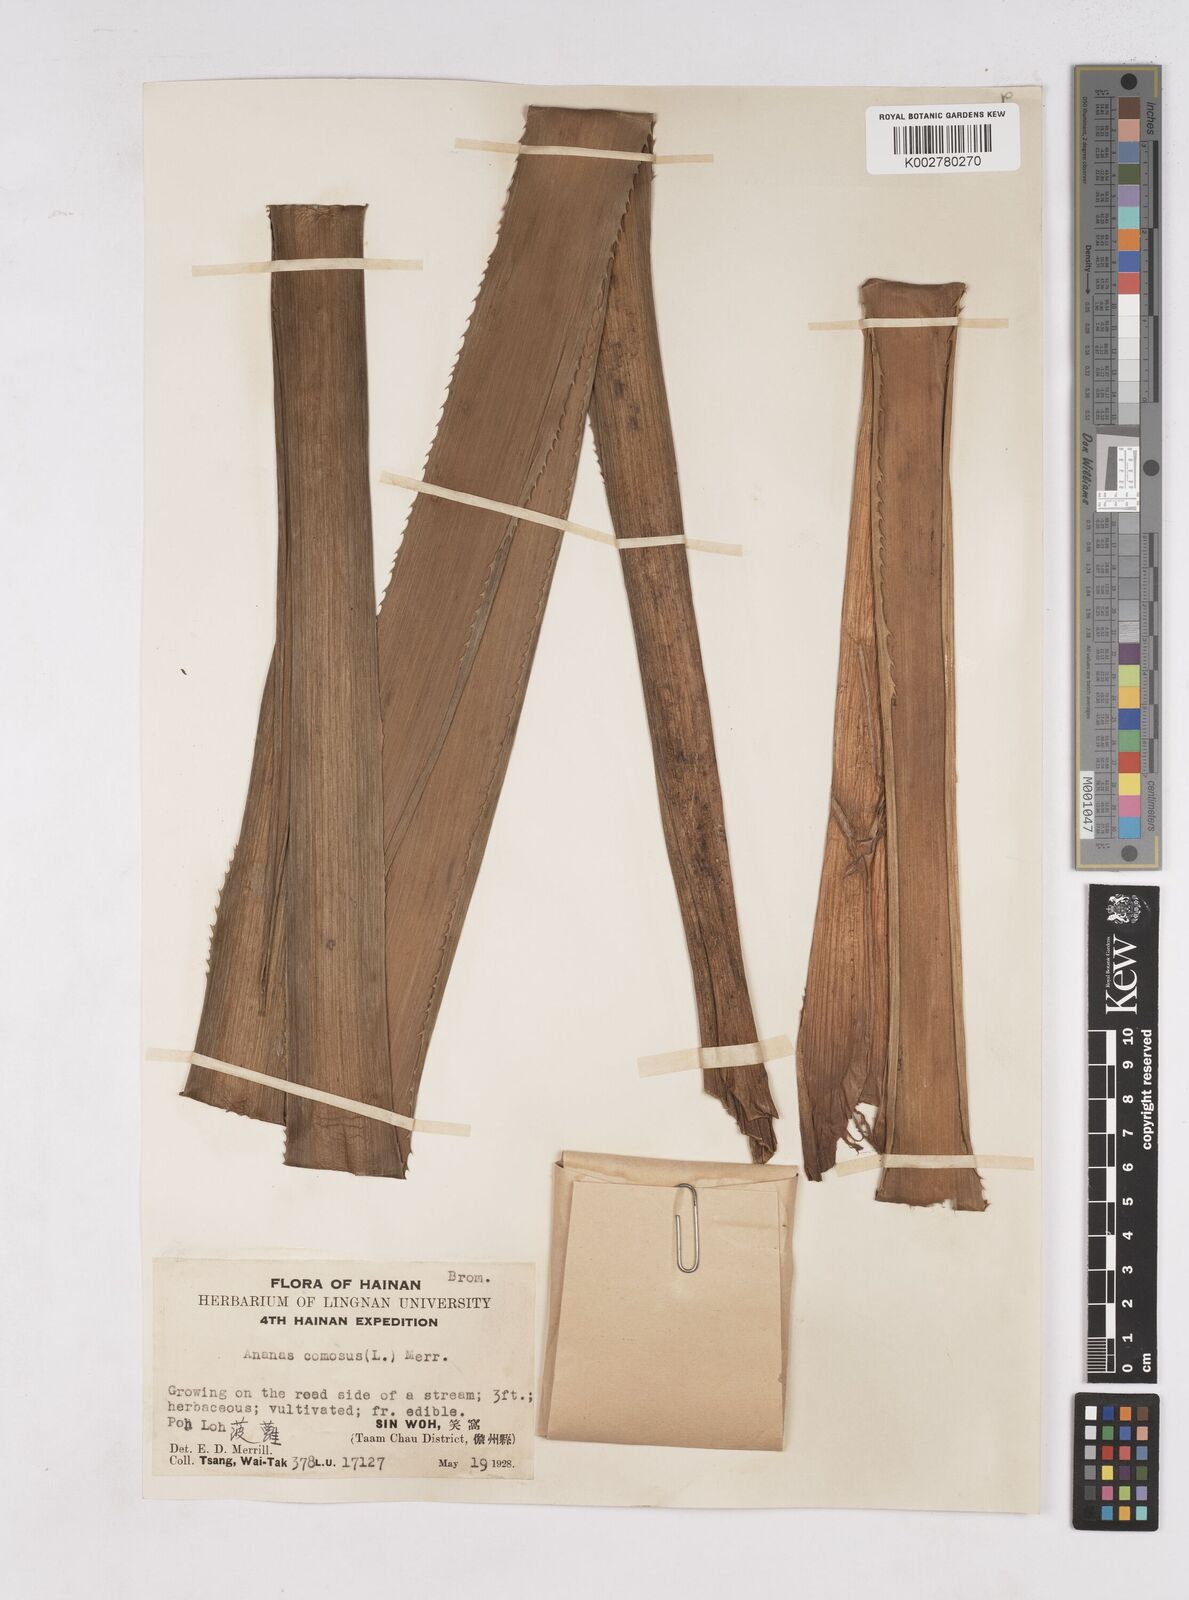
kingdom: Plantae
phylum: Tracheophyta
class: Liliopsida
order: Poales
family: Bromeliaceae
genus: Ananas
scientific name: Ananas comosus
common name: Pineapple
